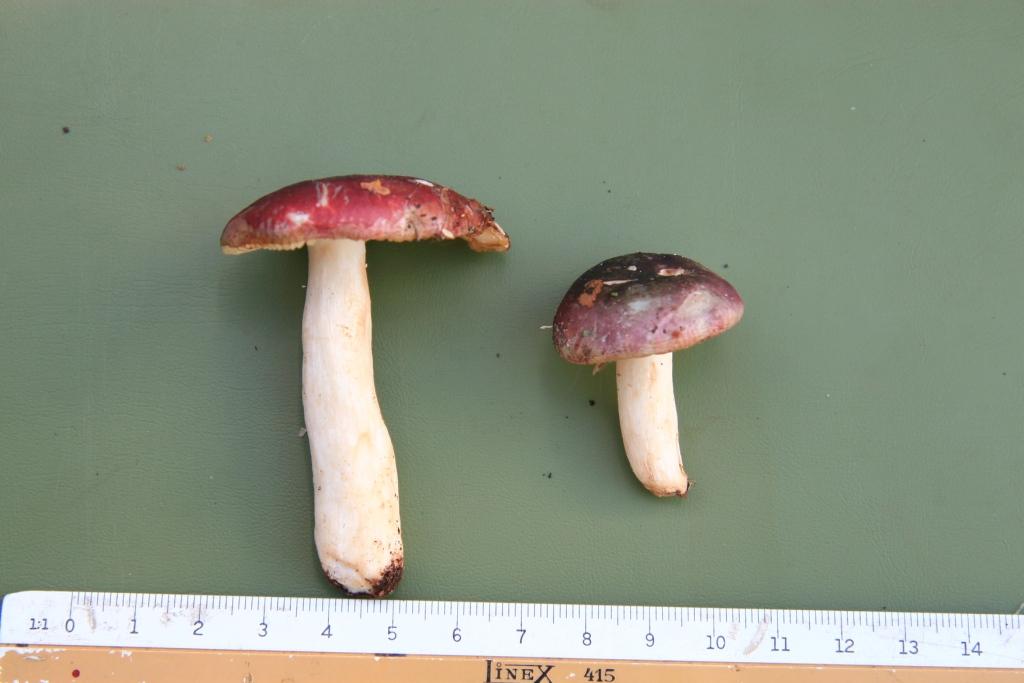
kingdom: Fungi
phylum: Basidiomycota
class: Agaricomycetes
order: Russulales
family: Russulaceae
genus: Russula
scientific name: Russula pelargonia
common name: pelargonie-skørhat
